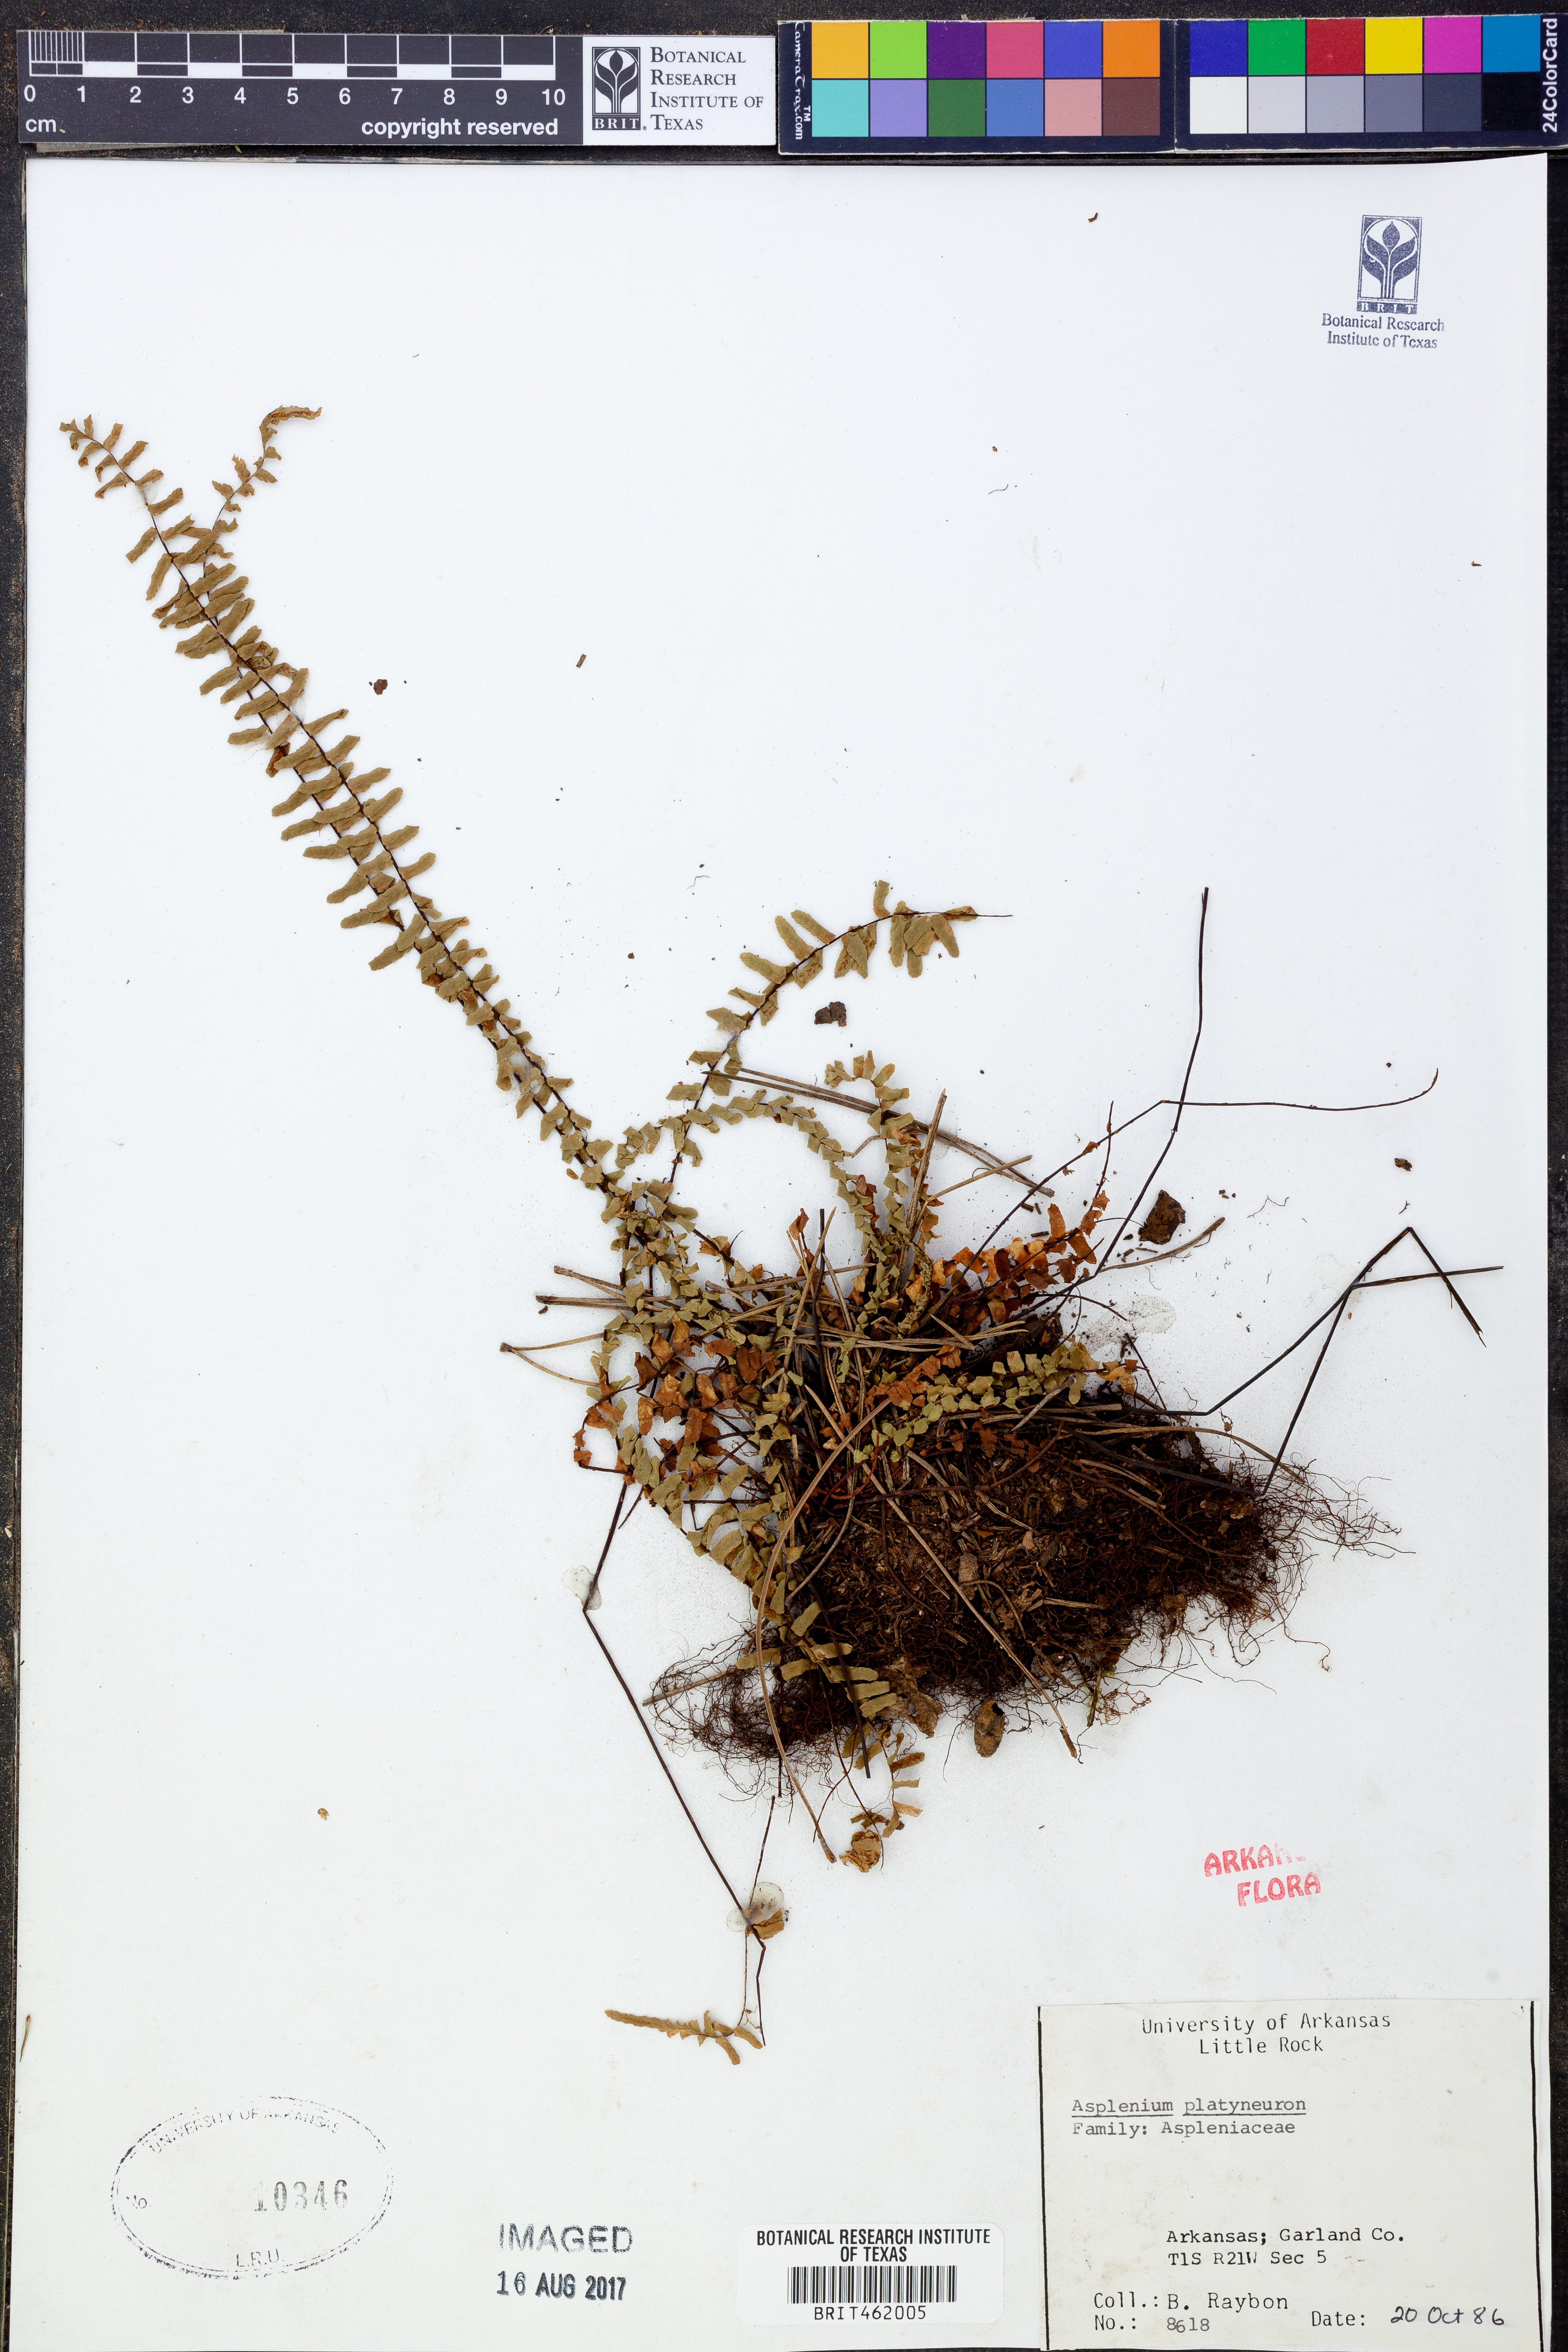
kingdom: Plantae
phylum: Tracheophyta
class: Polypodiopsida
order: Polypodiales
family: Aspleniaceae
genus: Asplenium
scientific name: Asplenium platyneuron
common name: Ebony spleenwort
